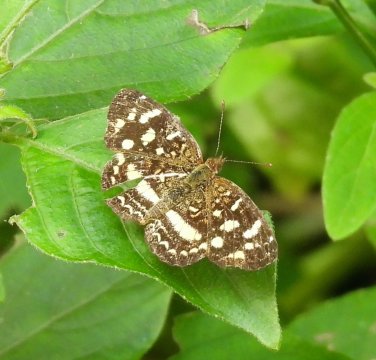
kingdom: Animalia
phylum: Arthropoda
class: Insecta
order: Lepidoptera
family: Nymphalidae
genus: Anthanassa
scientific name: Anthanassa tulcis
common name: Pale-banded Crescent
